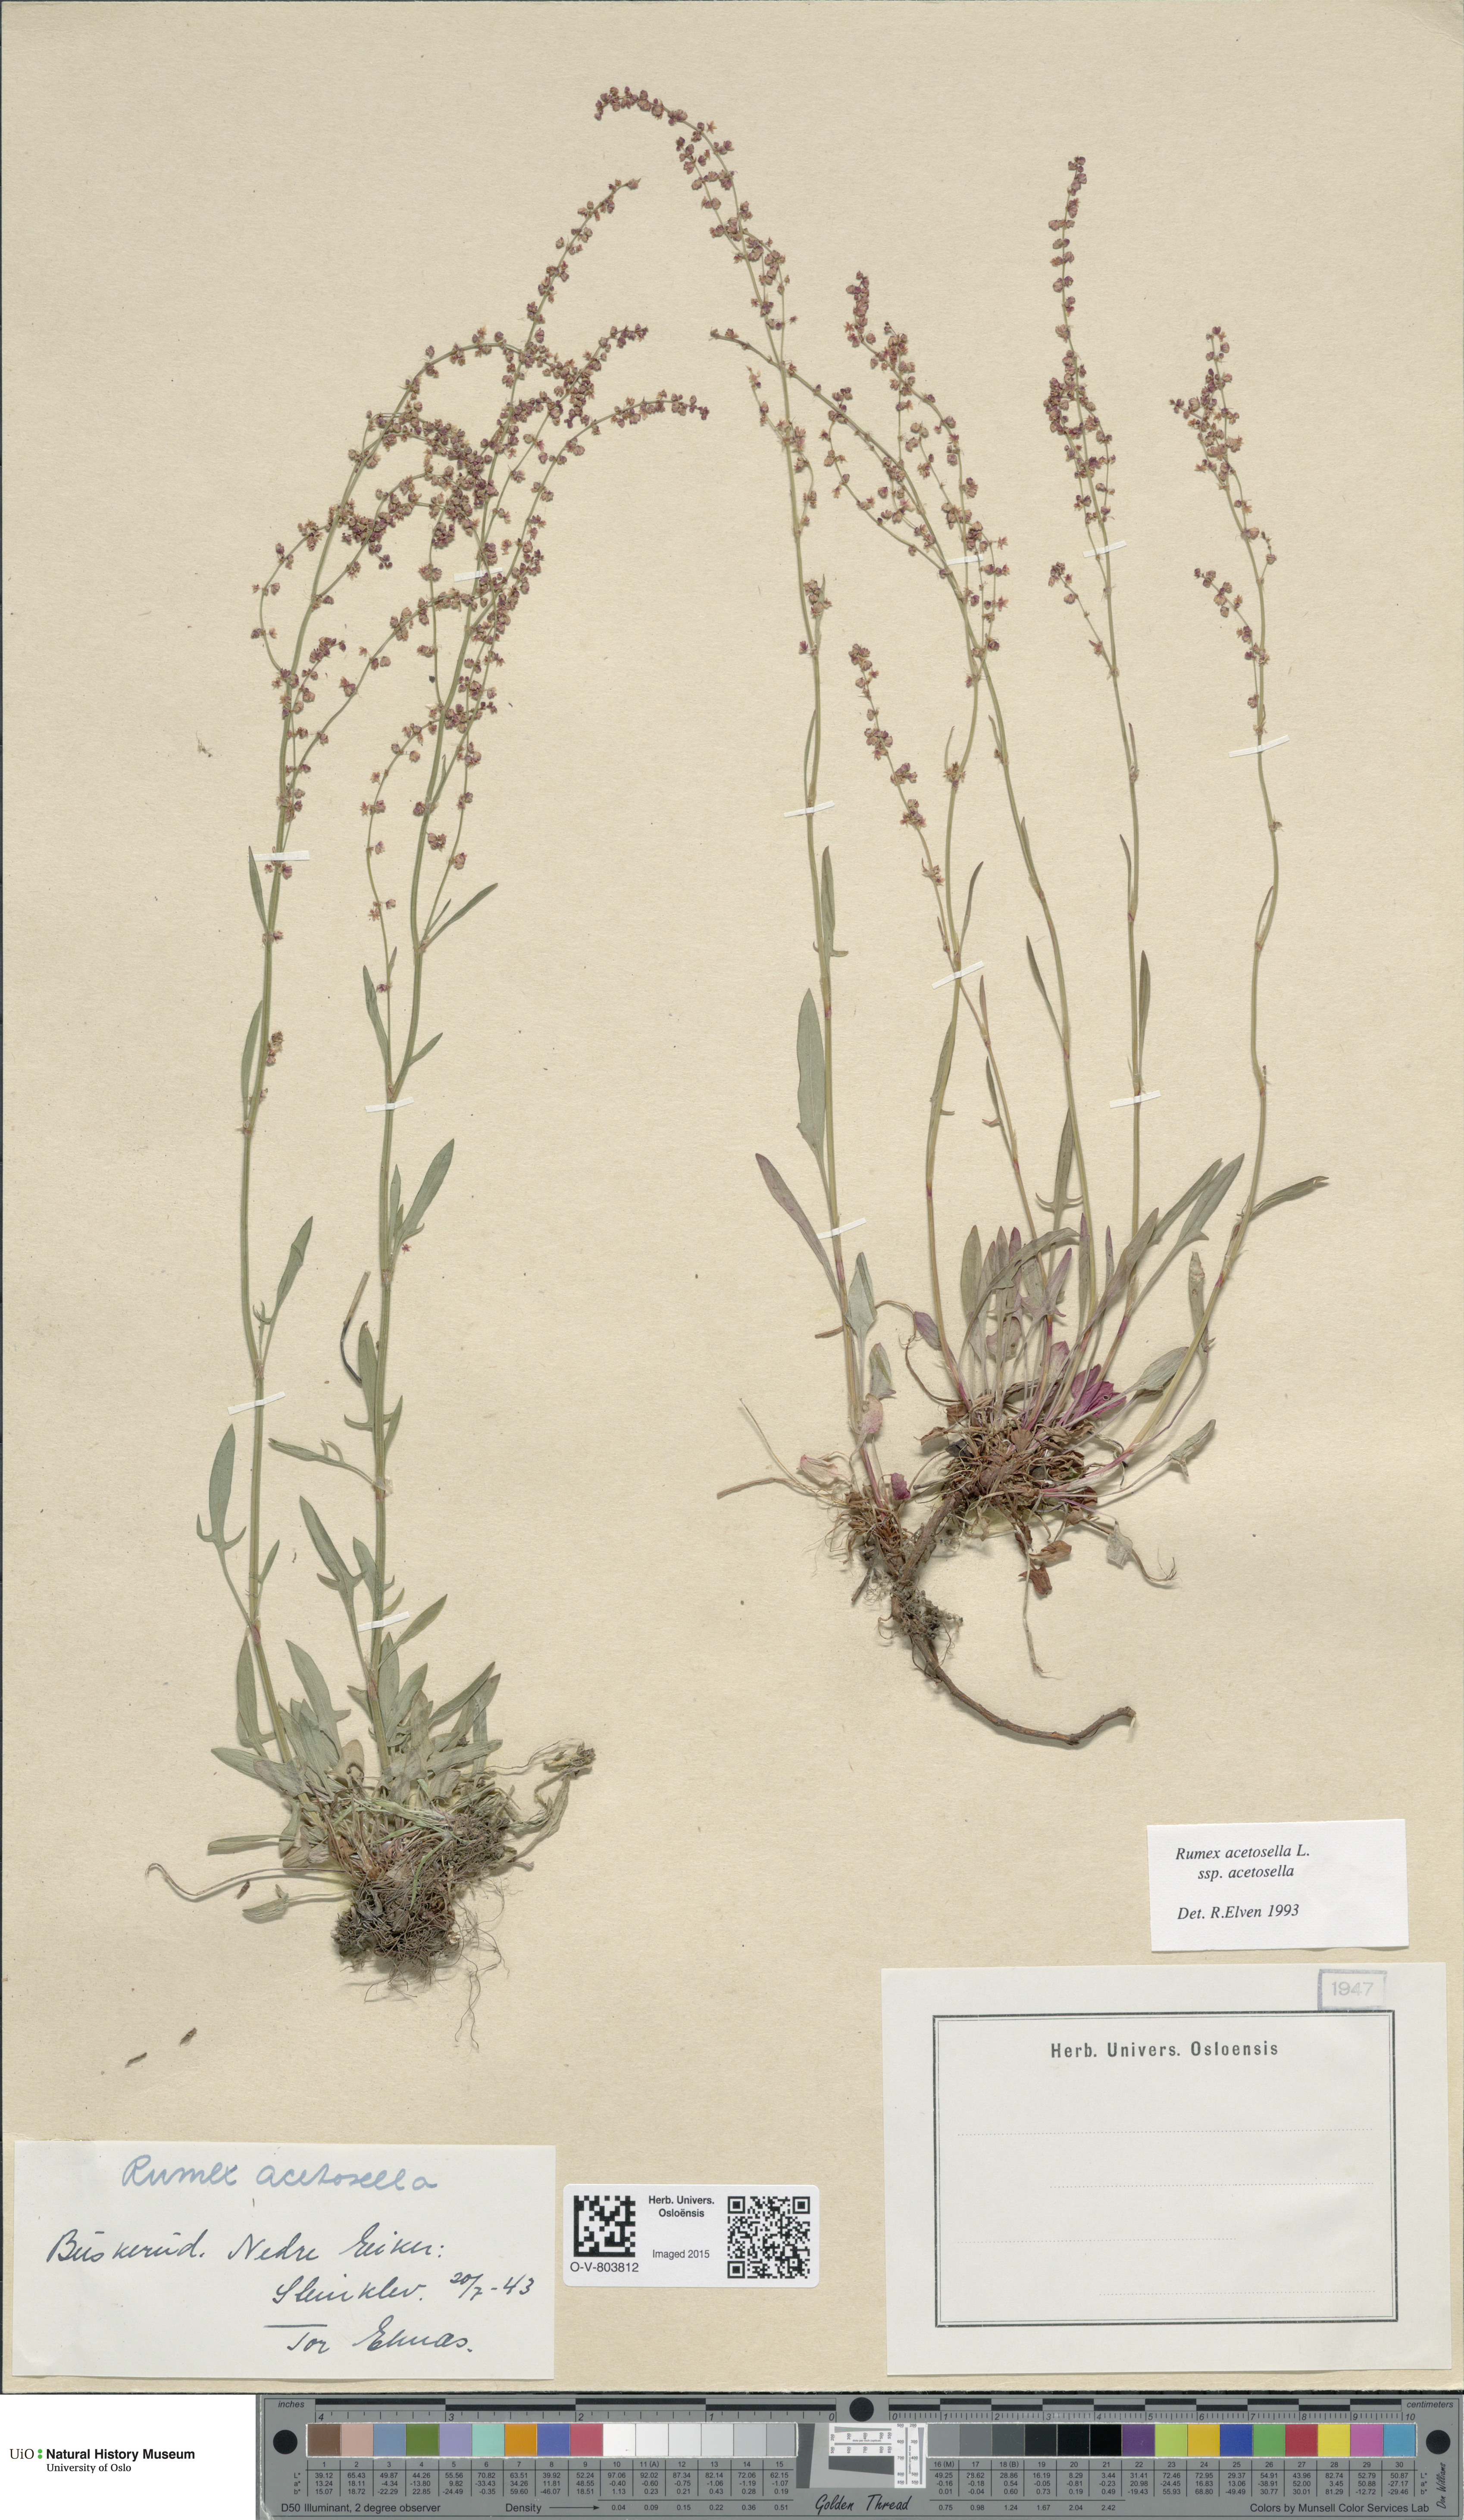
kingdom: Plantae
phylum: Tracheophyta
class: Magnoliopsida
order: Caryophyllales
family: Polygonaceae
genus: Rumex
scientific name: Rumex acetosella
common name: Common sheep sorrel
